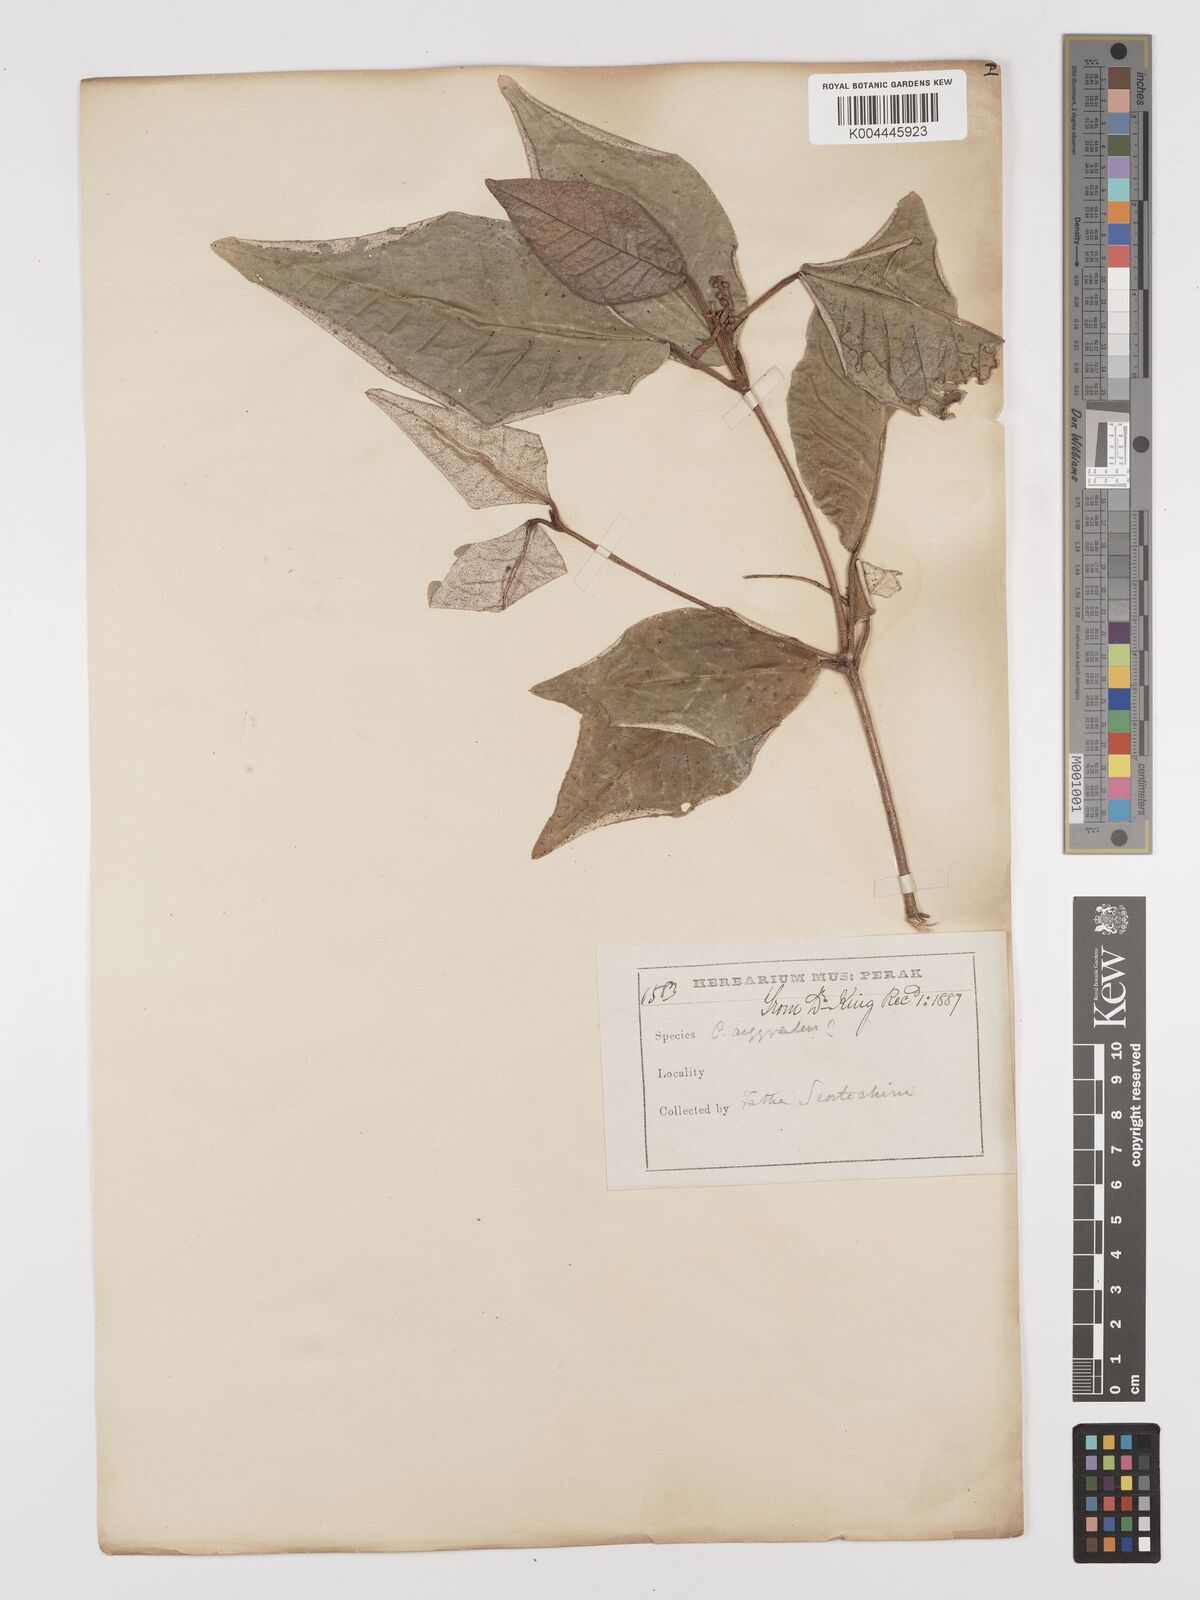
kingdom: Plantae
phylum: Tracheophyta
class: Magnoliopsida
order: Malpighiales
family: Euphorbiaceae
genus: Croton
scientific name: Croton cascarilloides
